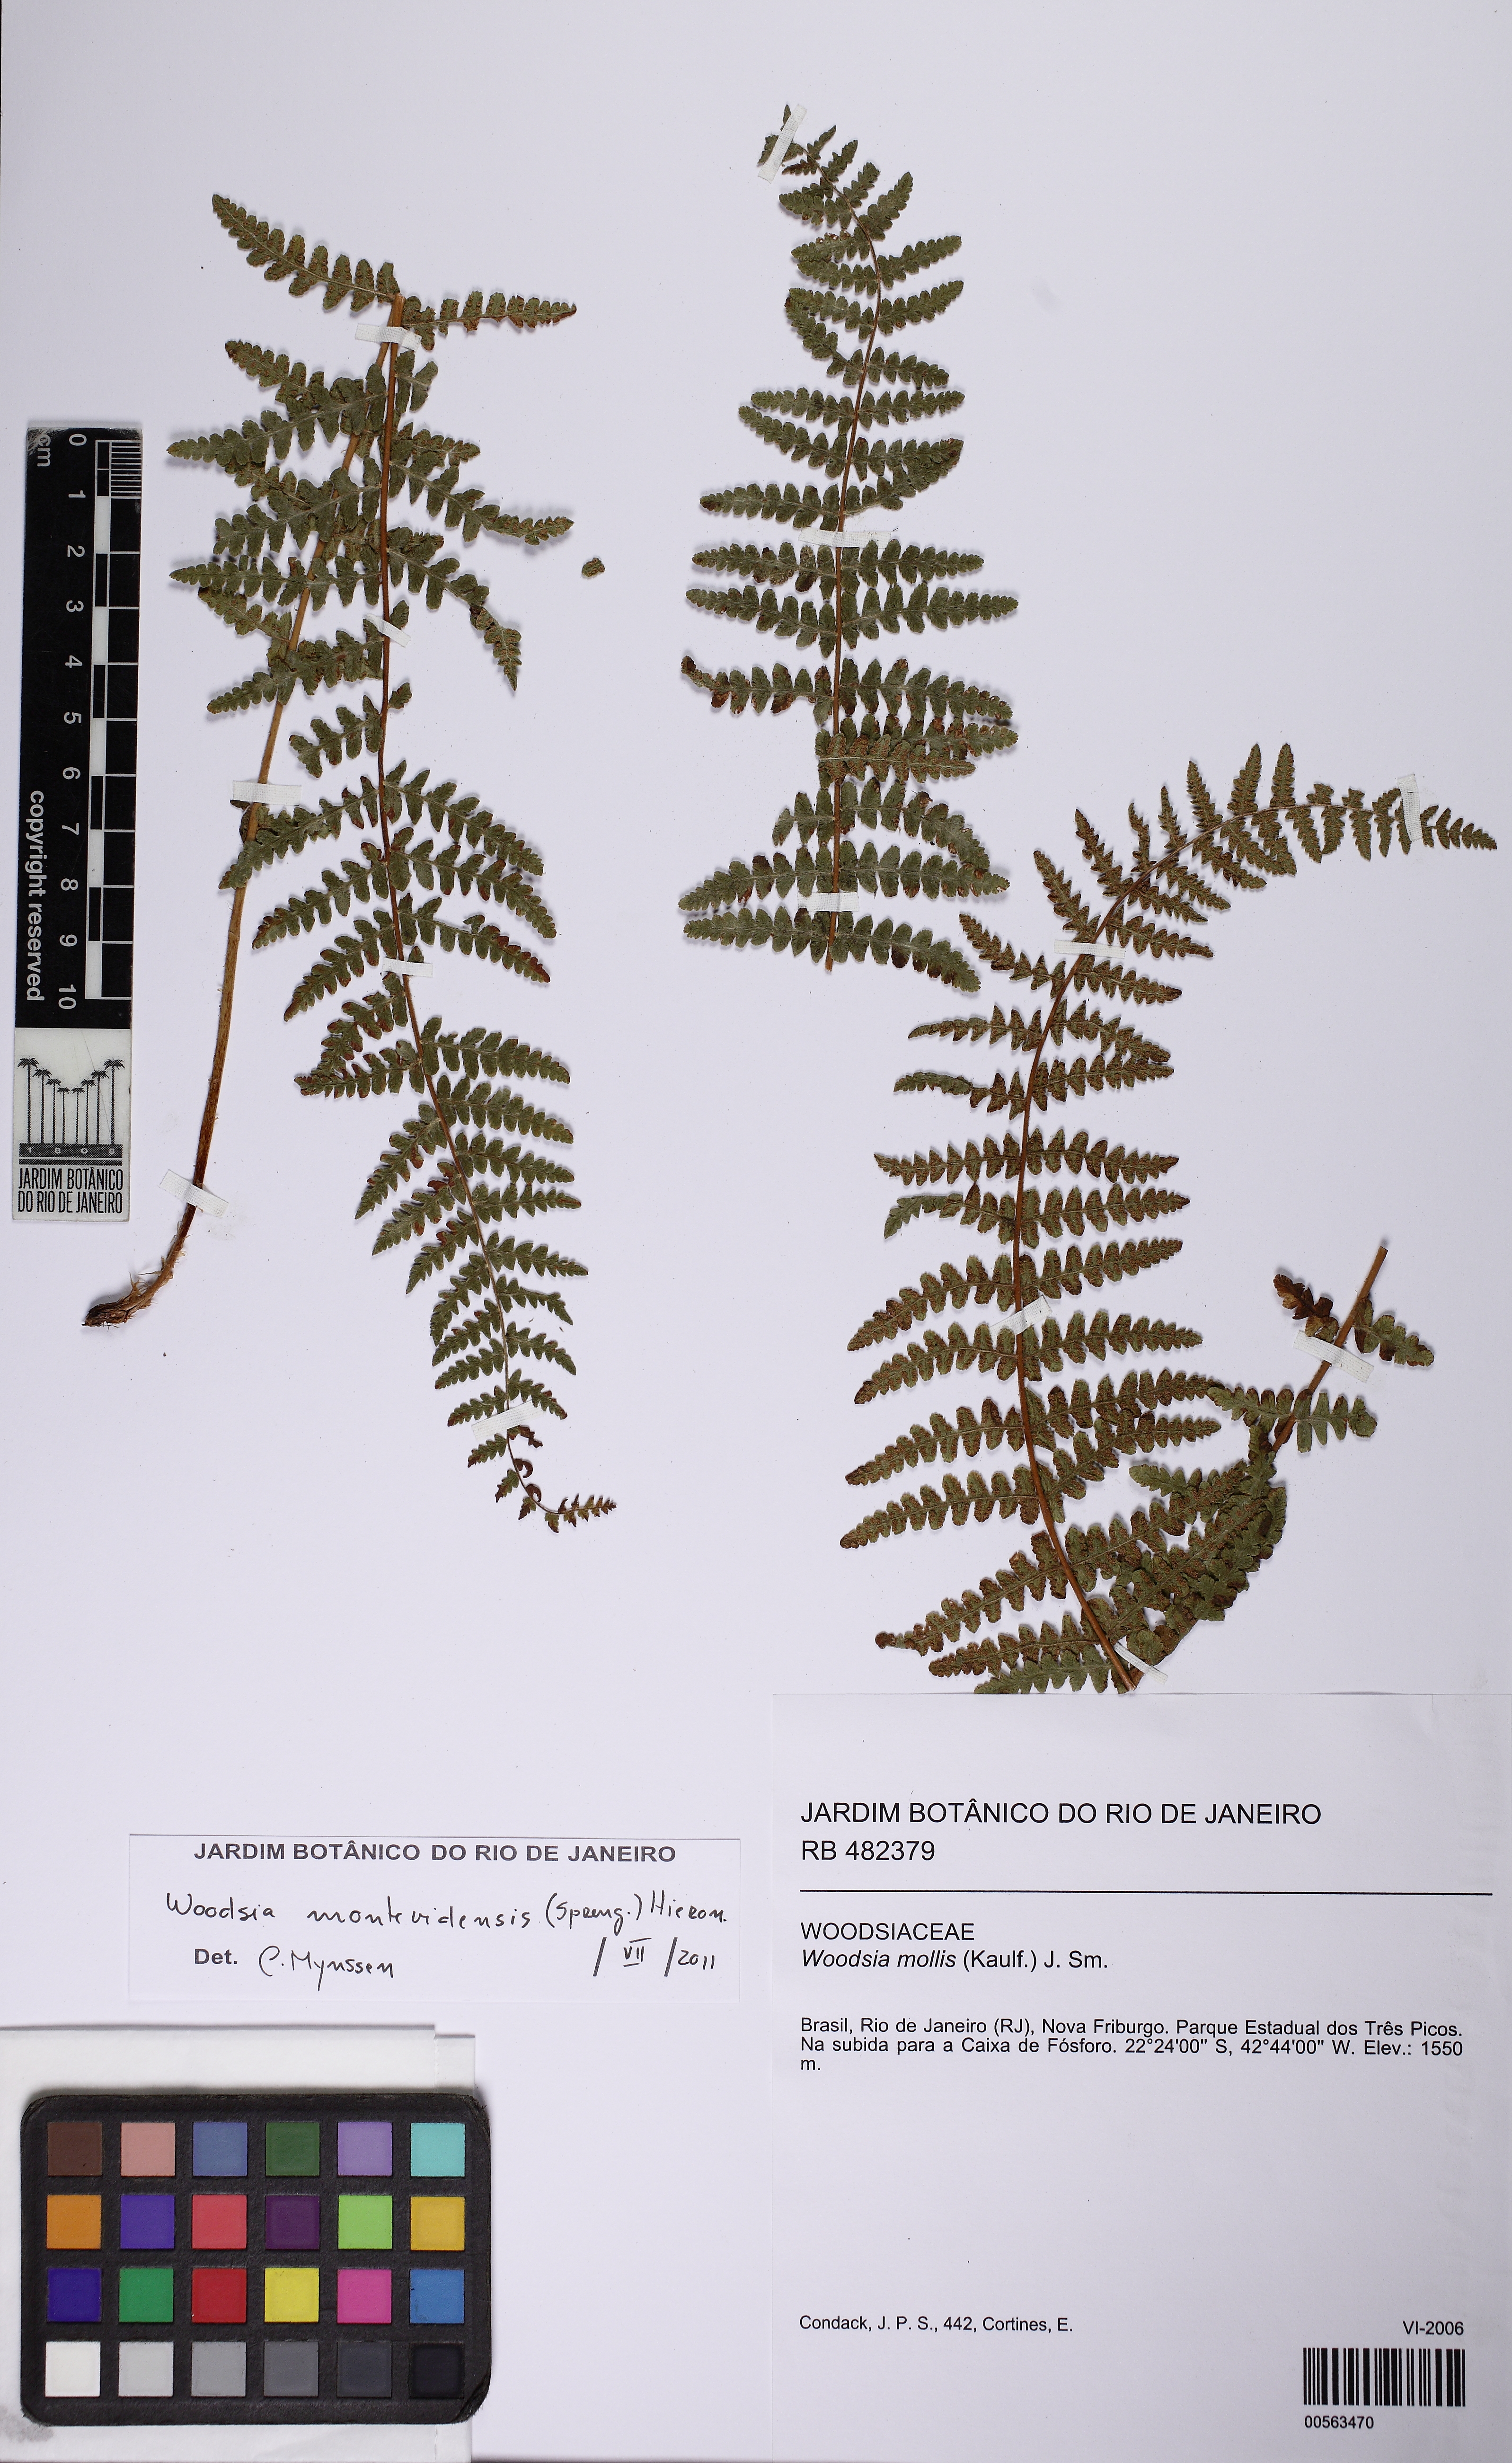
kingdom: Plantae
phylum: Tracheophyta
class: Polypodiopsida
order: Polypodiales
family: Woodsiaceae
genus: Physematium
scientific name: Physematium montevidense
